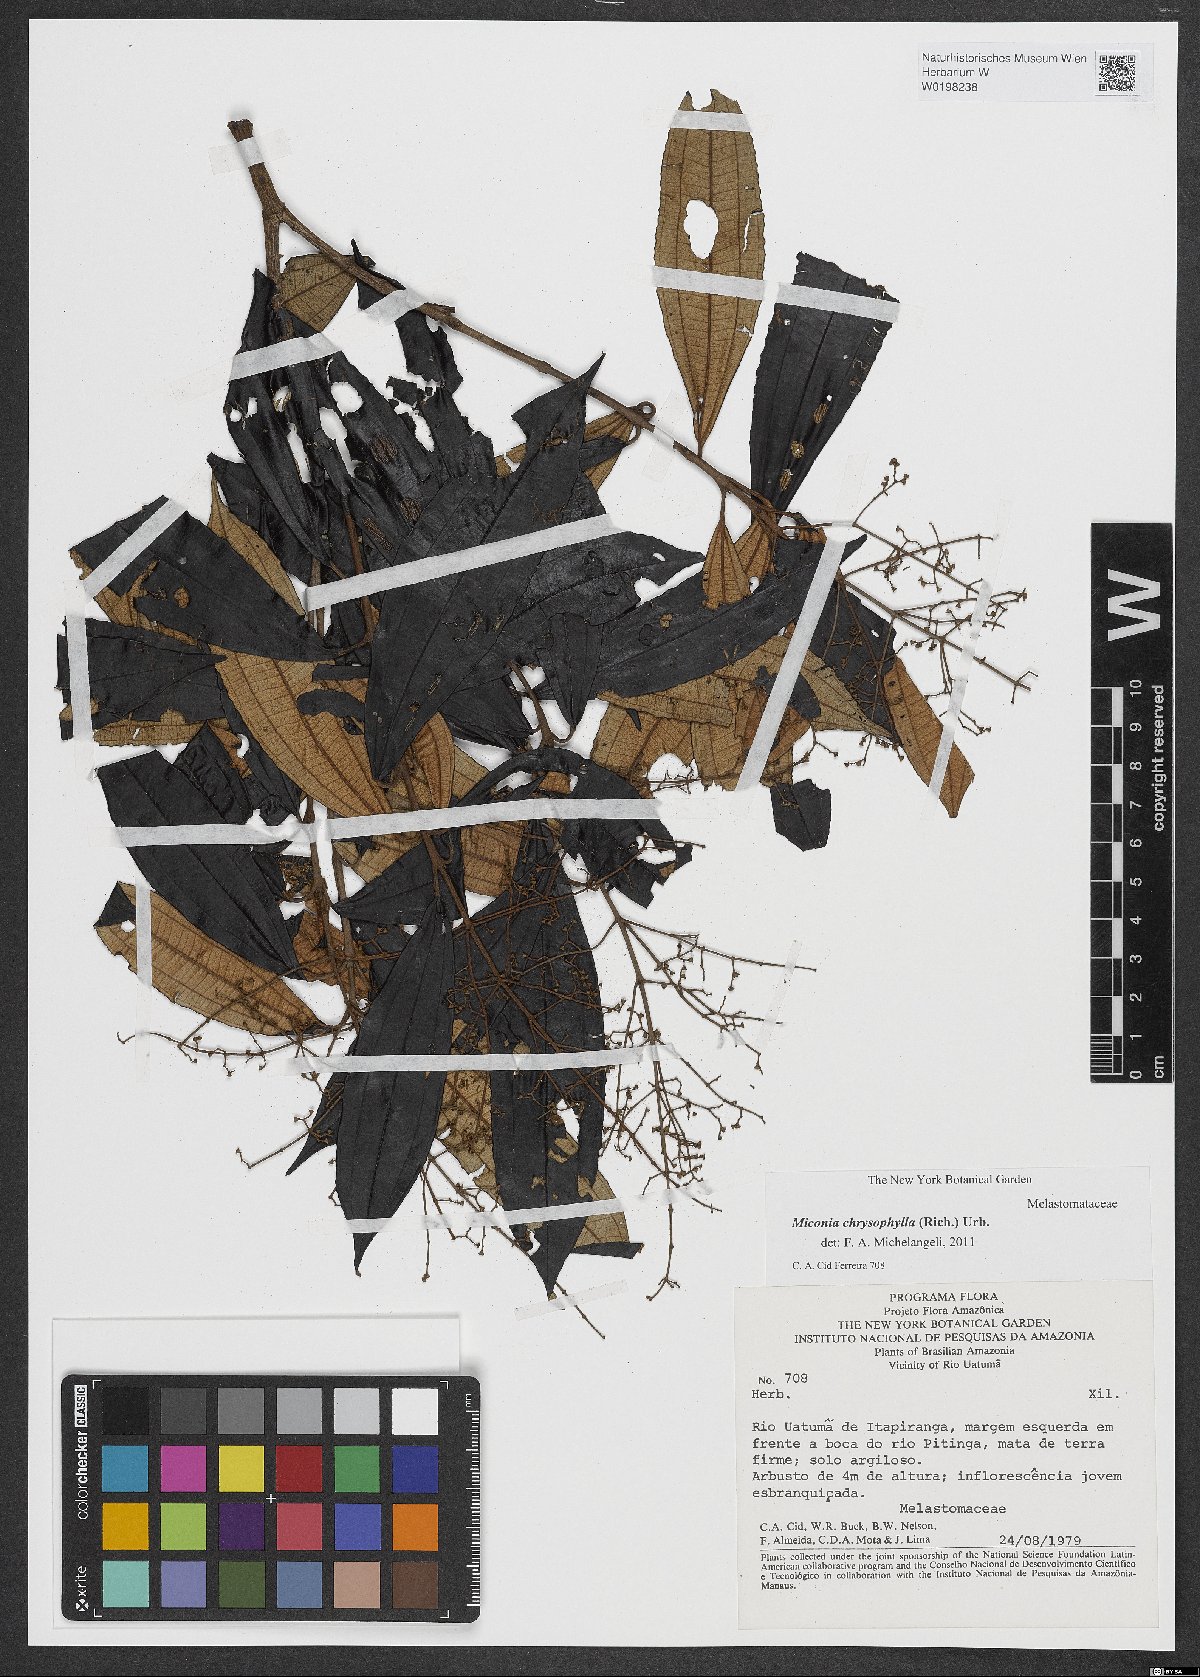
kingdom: Plantae
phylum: Tracheophyta
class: Magnoliopsida
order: Myrtales
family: Melastomataceae
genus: Miconia
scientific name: Miconia chrysophylla
